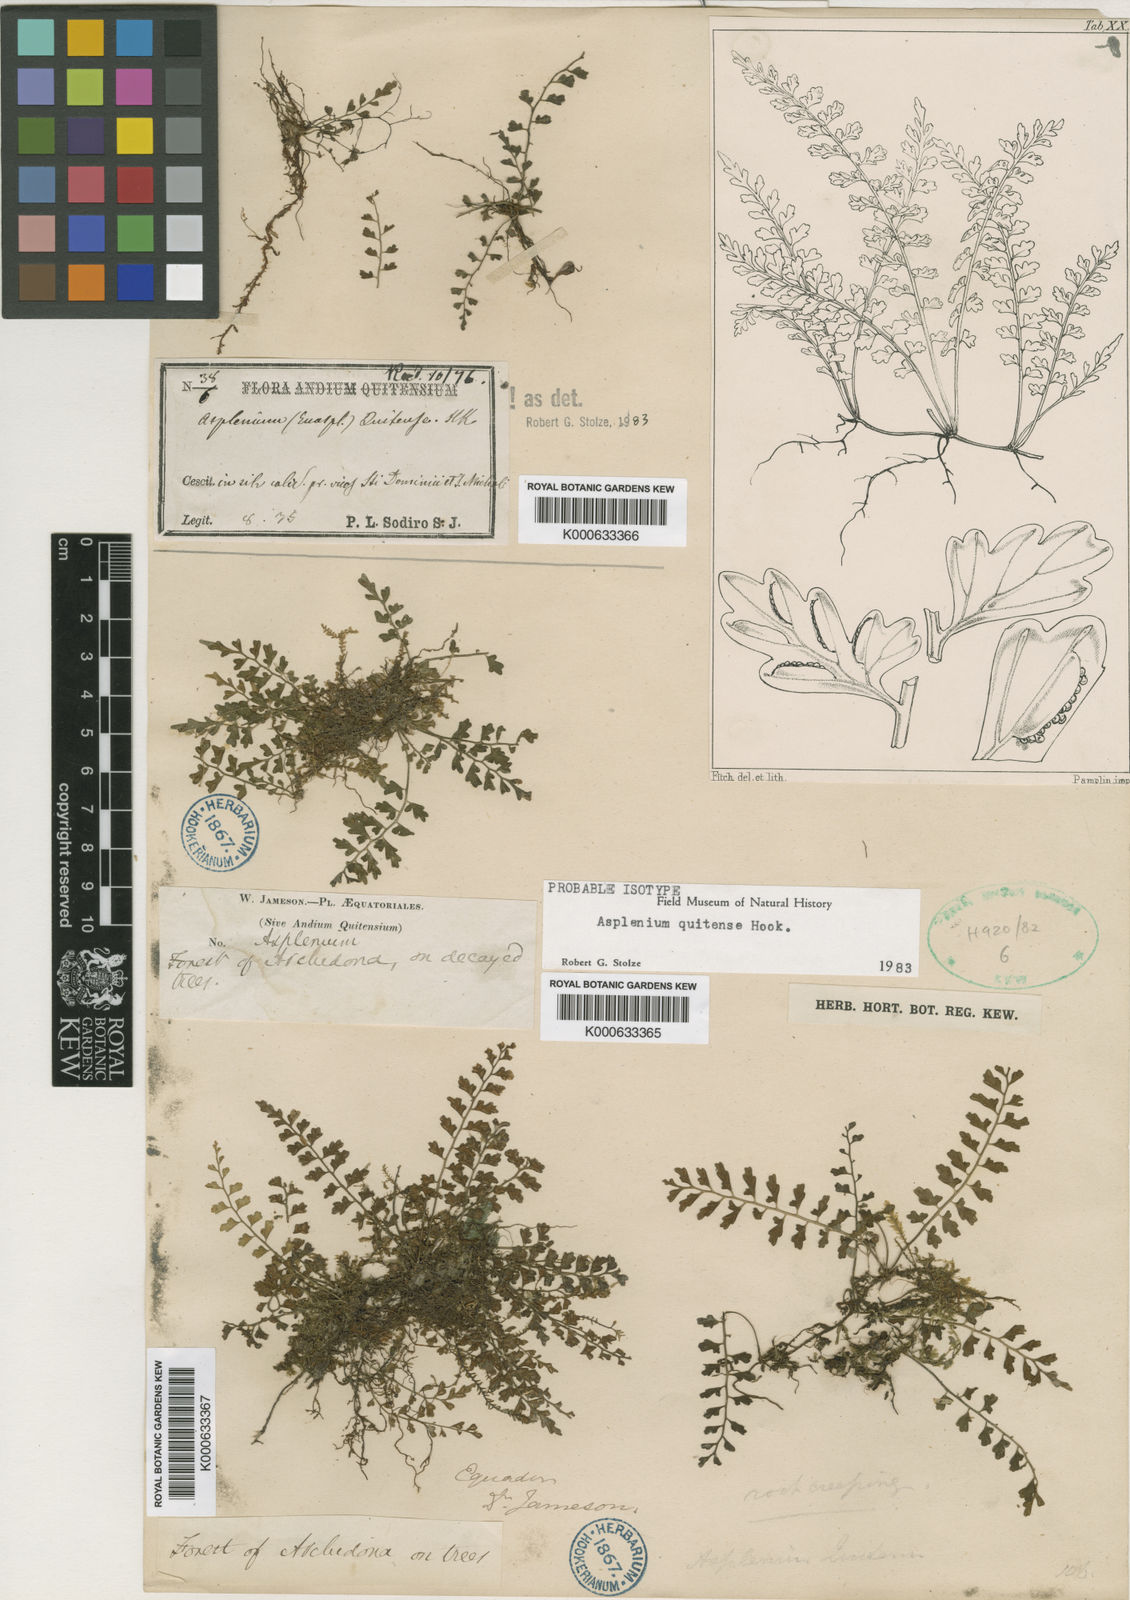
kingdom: Plantae
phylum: Tracheophyta
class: Polypodiopsida
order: Polypodiales
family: Aspleniaceae
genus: Asplenium
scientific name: Asplenium quitense
